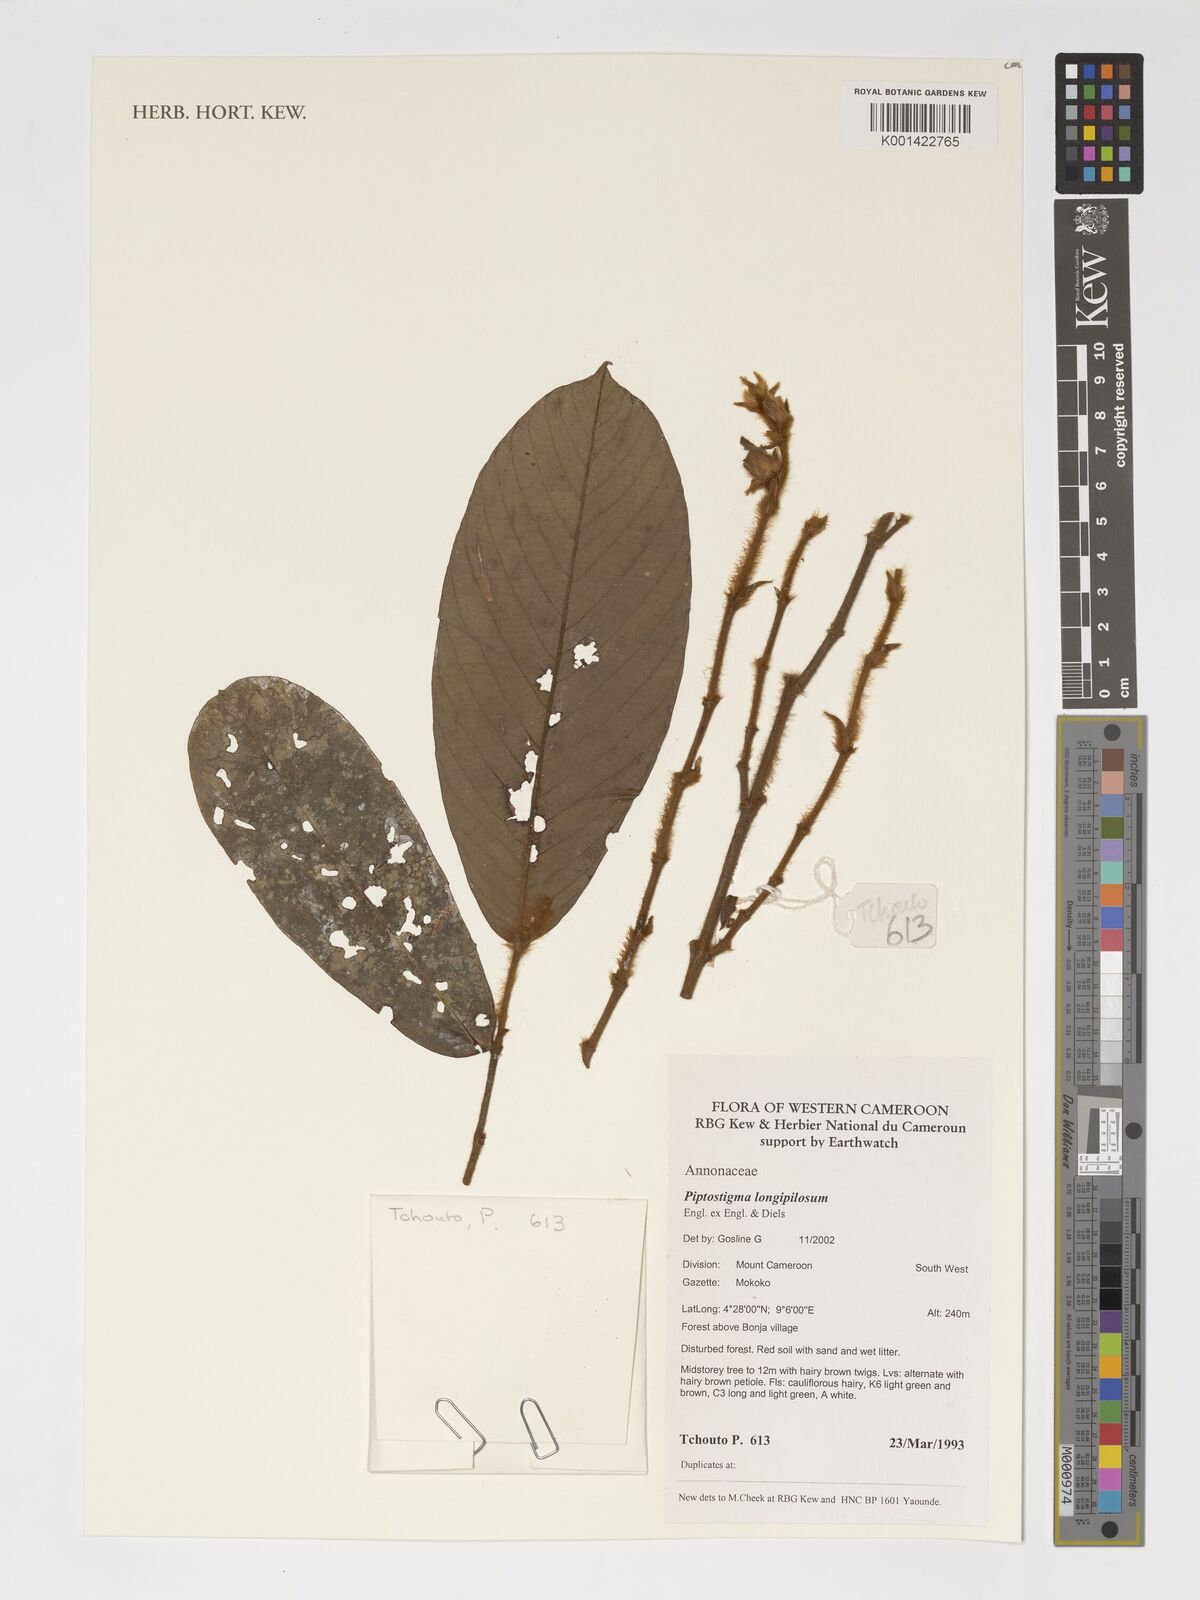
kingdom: Plantae
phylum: Tracheophyta
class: Magnoliopsida
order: Magnoliales
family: Annonaceae
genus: Piptostigma
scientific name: Piptostigma longepilosum
